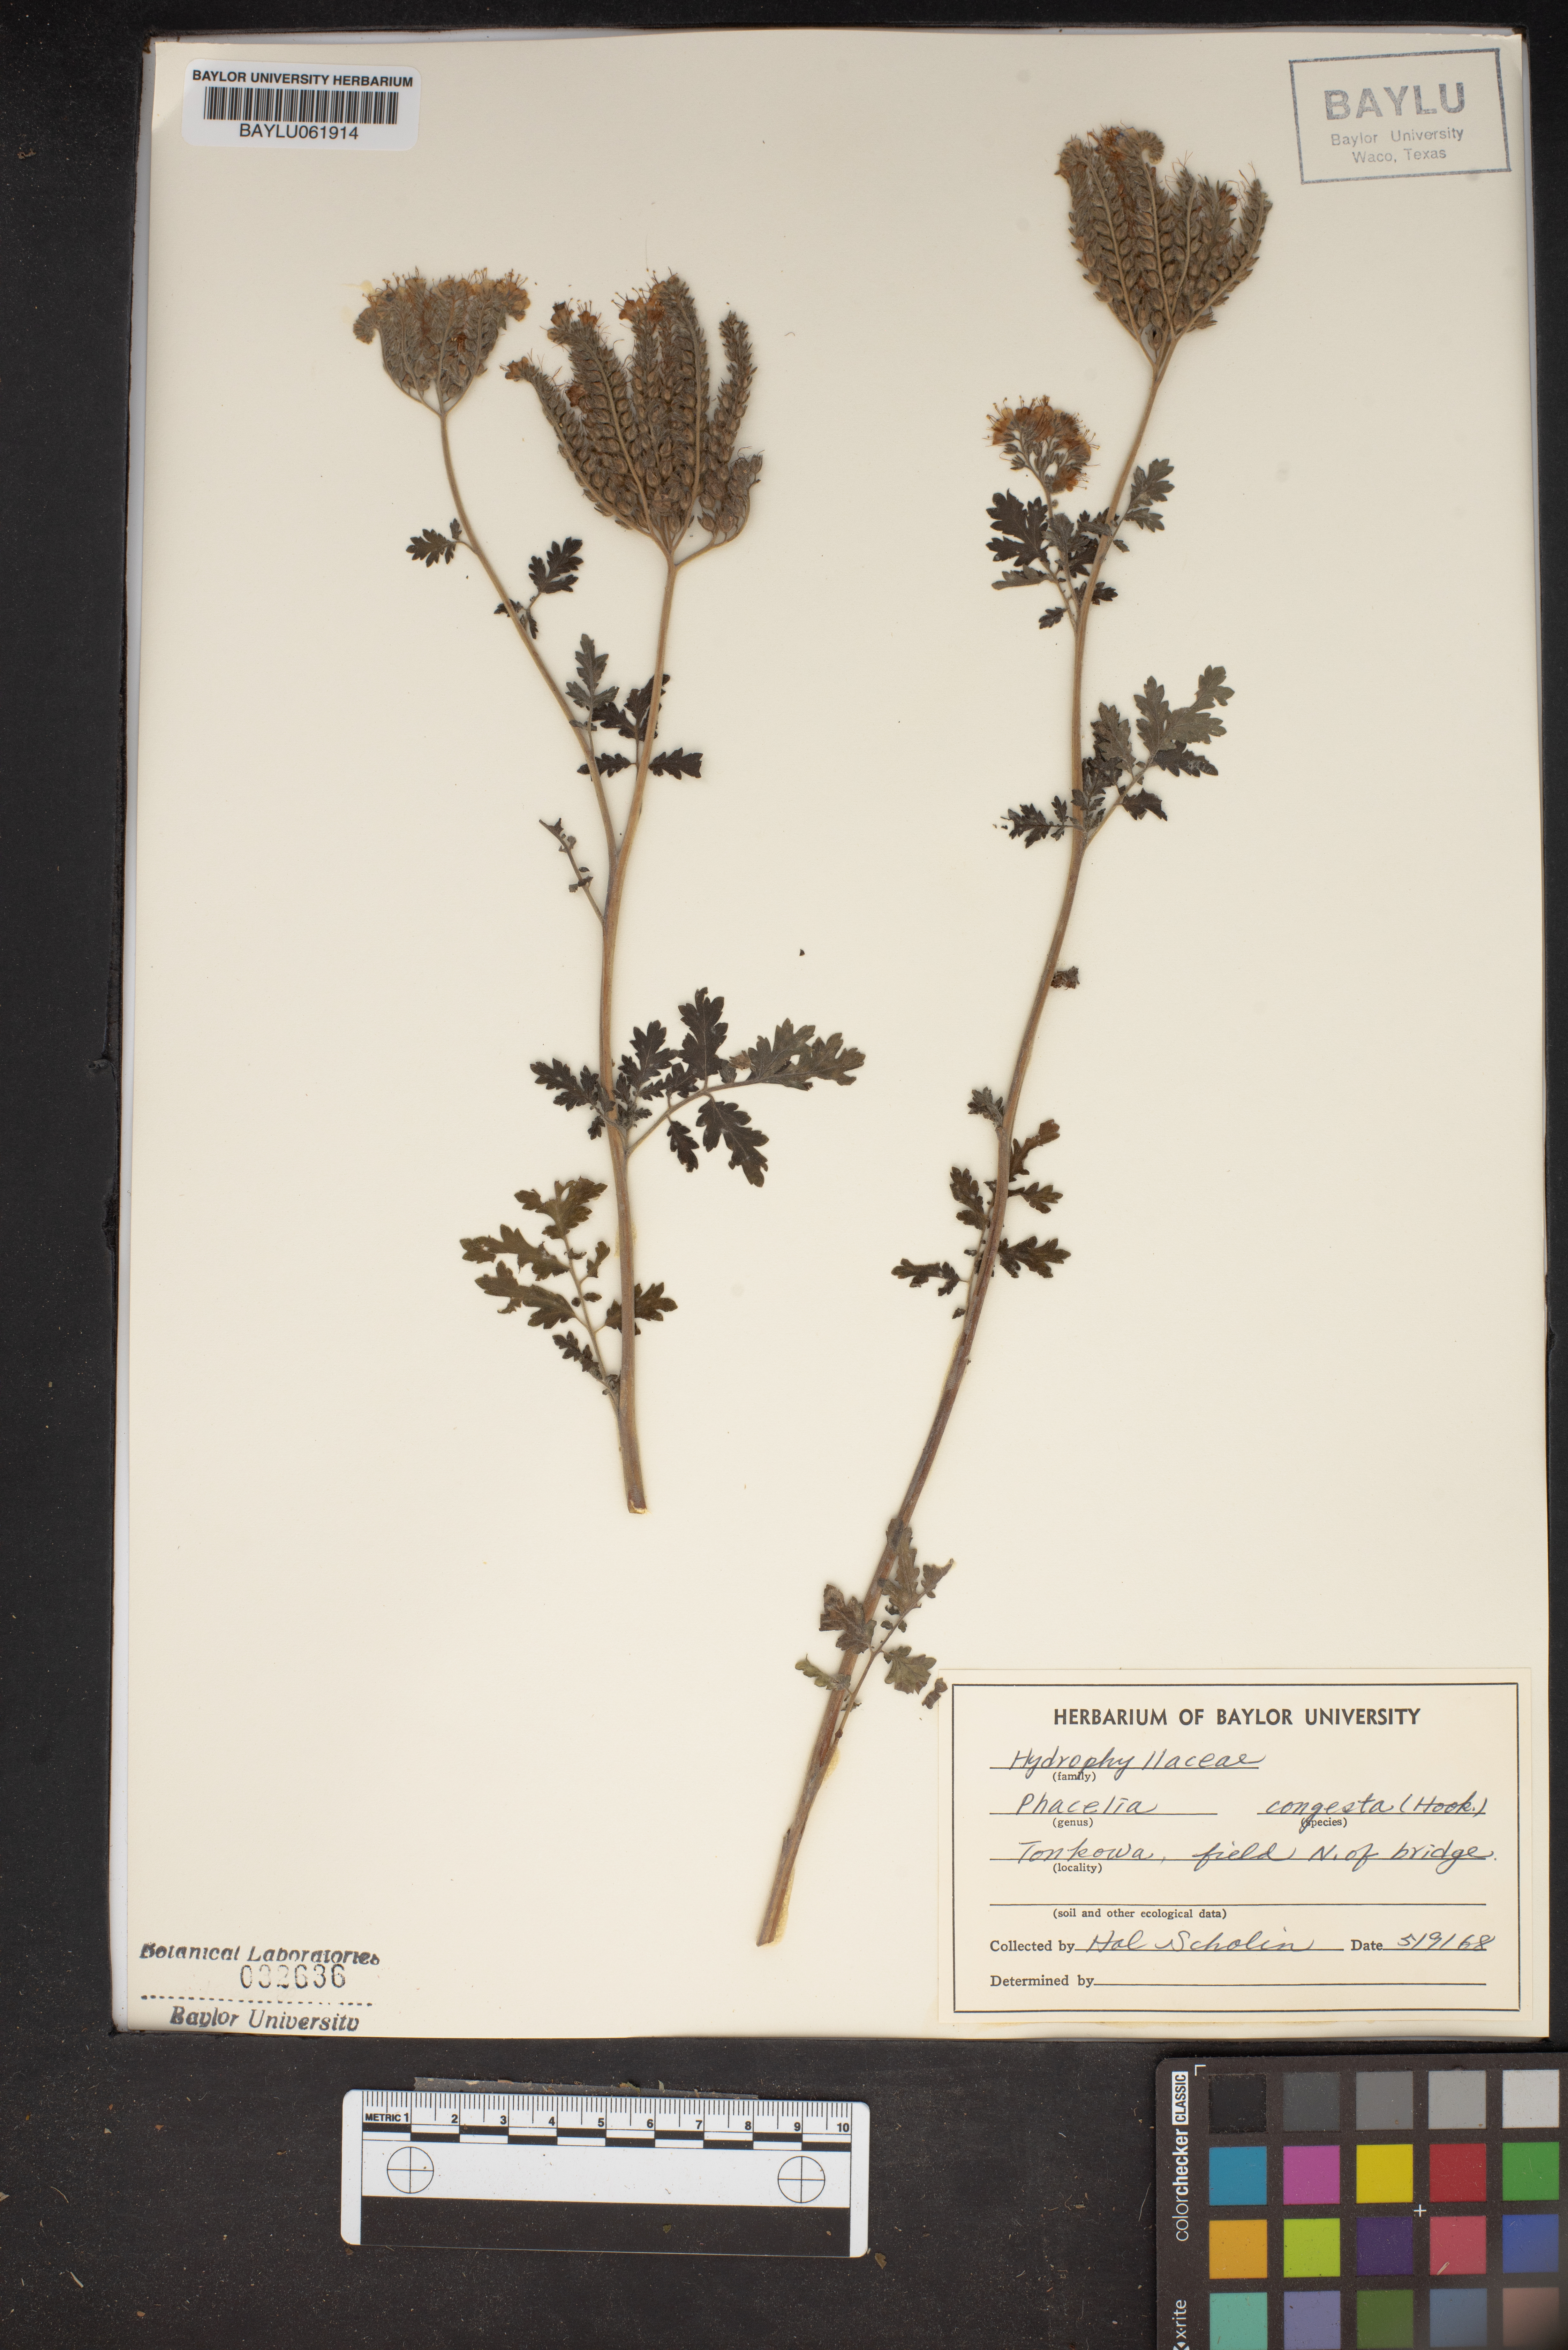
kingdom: Plantae
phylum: Tracheophyta
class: Magnoliopsida
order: Boraginales
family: Hydrophyllaceae
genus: Phacelia
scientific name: Phacelia congesta
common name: Blue curls
